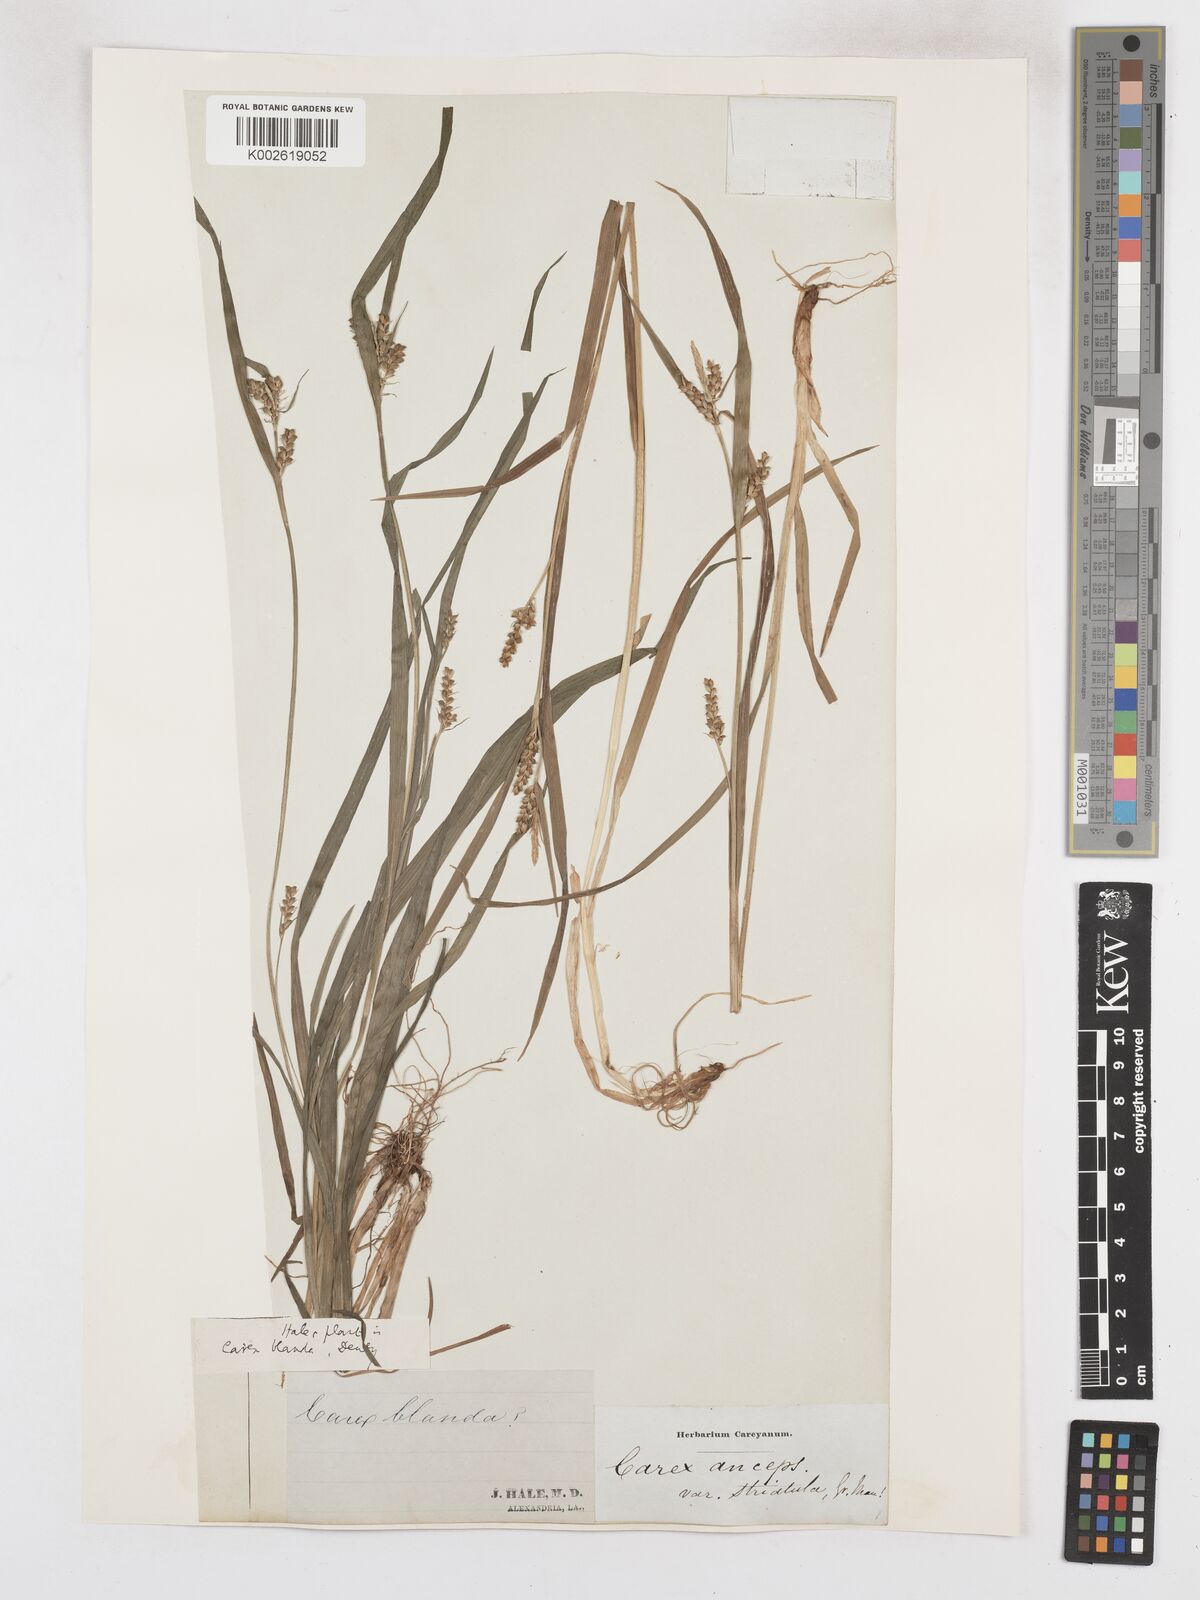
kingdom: Plantae
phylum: Tracheophyta
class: Liliopsida
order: Poales
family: Cyperaceae
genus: Carex
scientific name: Carex blanda
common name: Bland sedge
